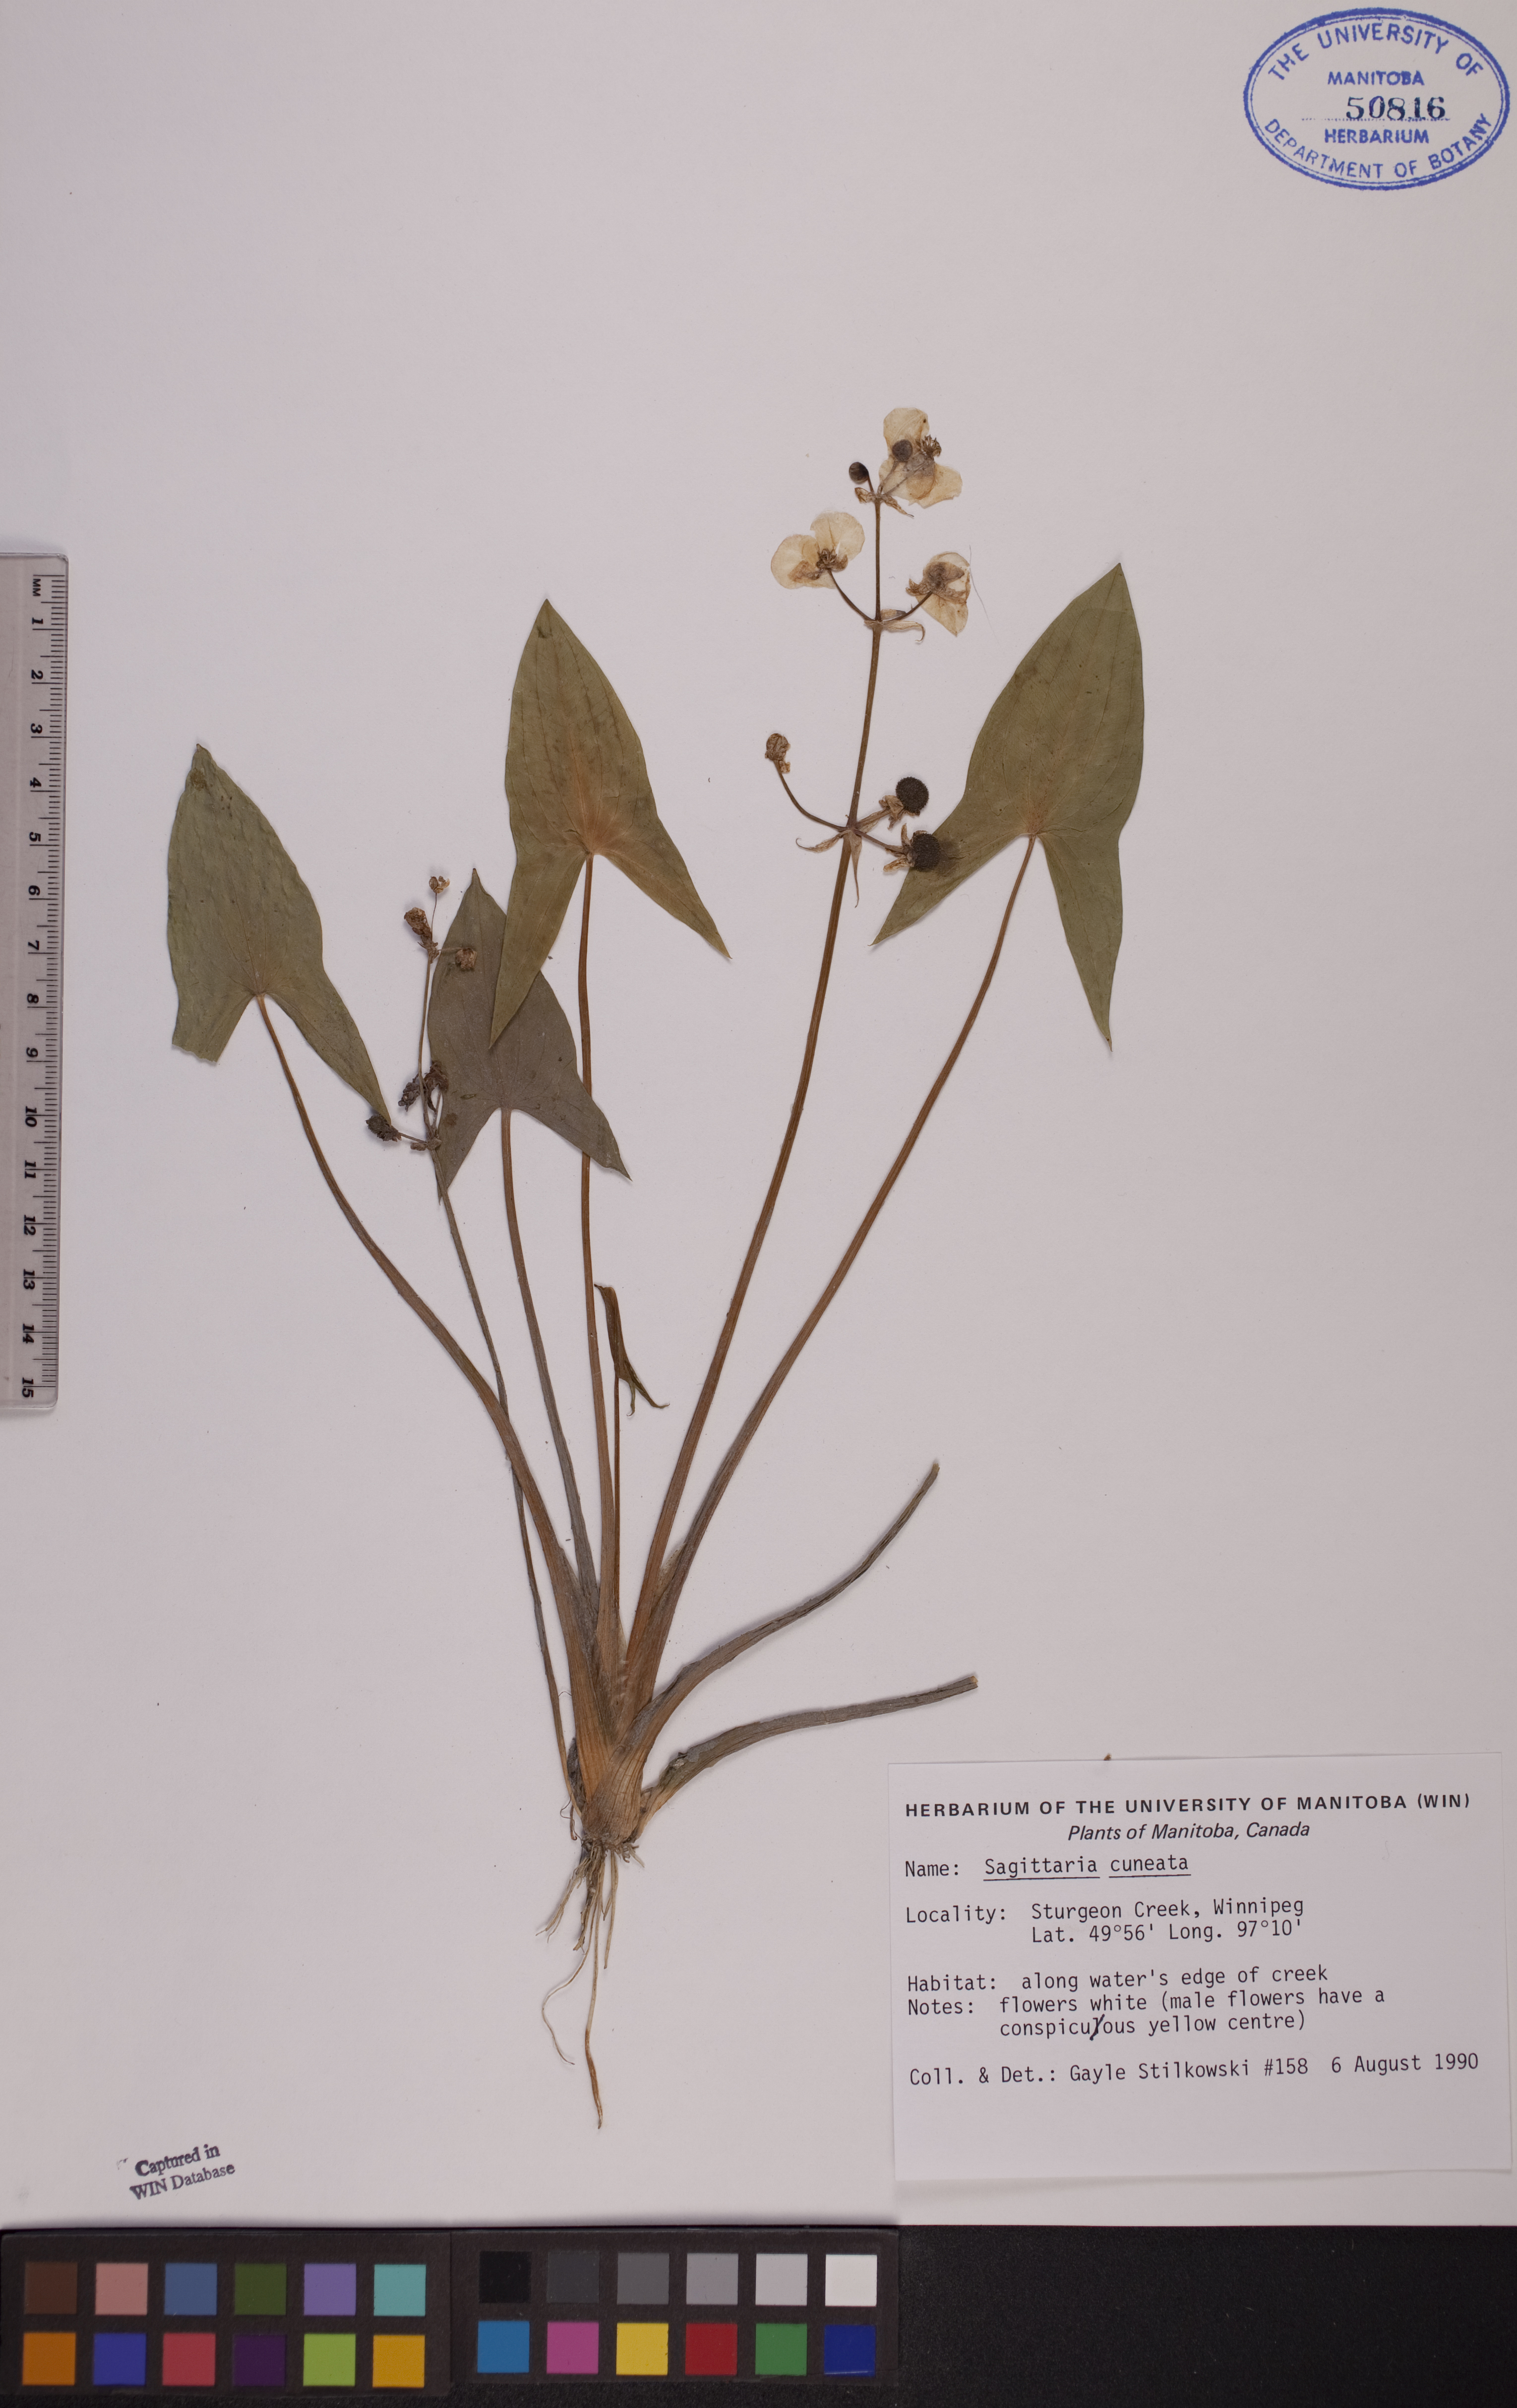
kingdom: Plantae
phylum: Tracheophyta
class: Liliopsida
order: Alismatales
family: Alismataceae
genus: Sagittaria
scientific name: Sagittaria cuneata
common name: Northern arrowhead
